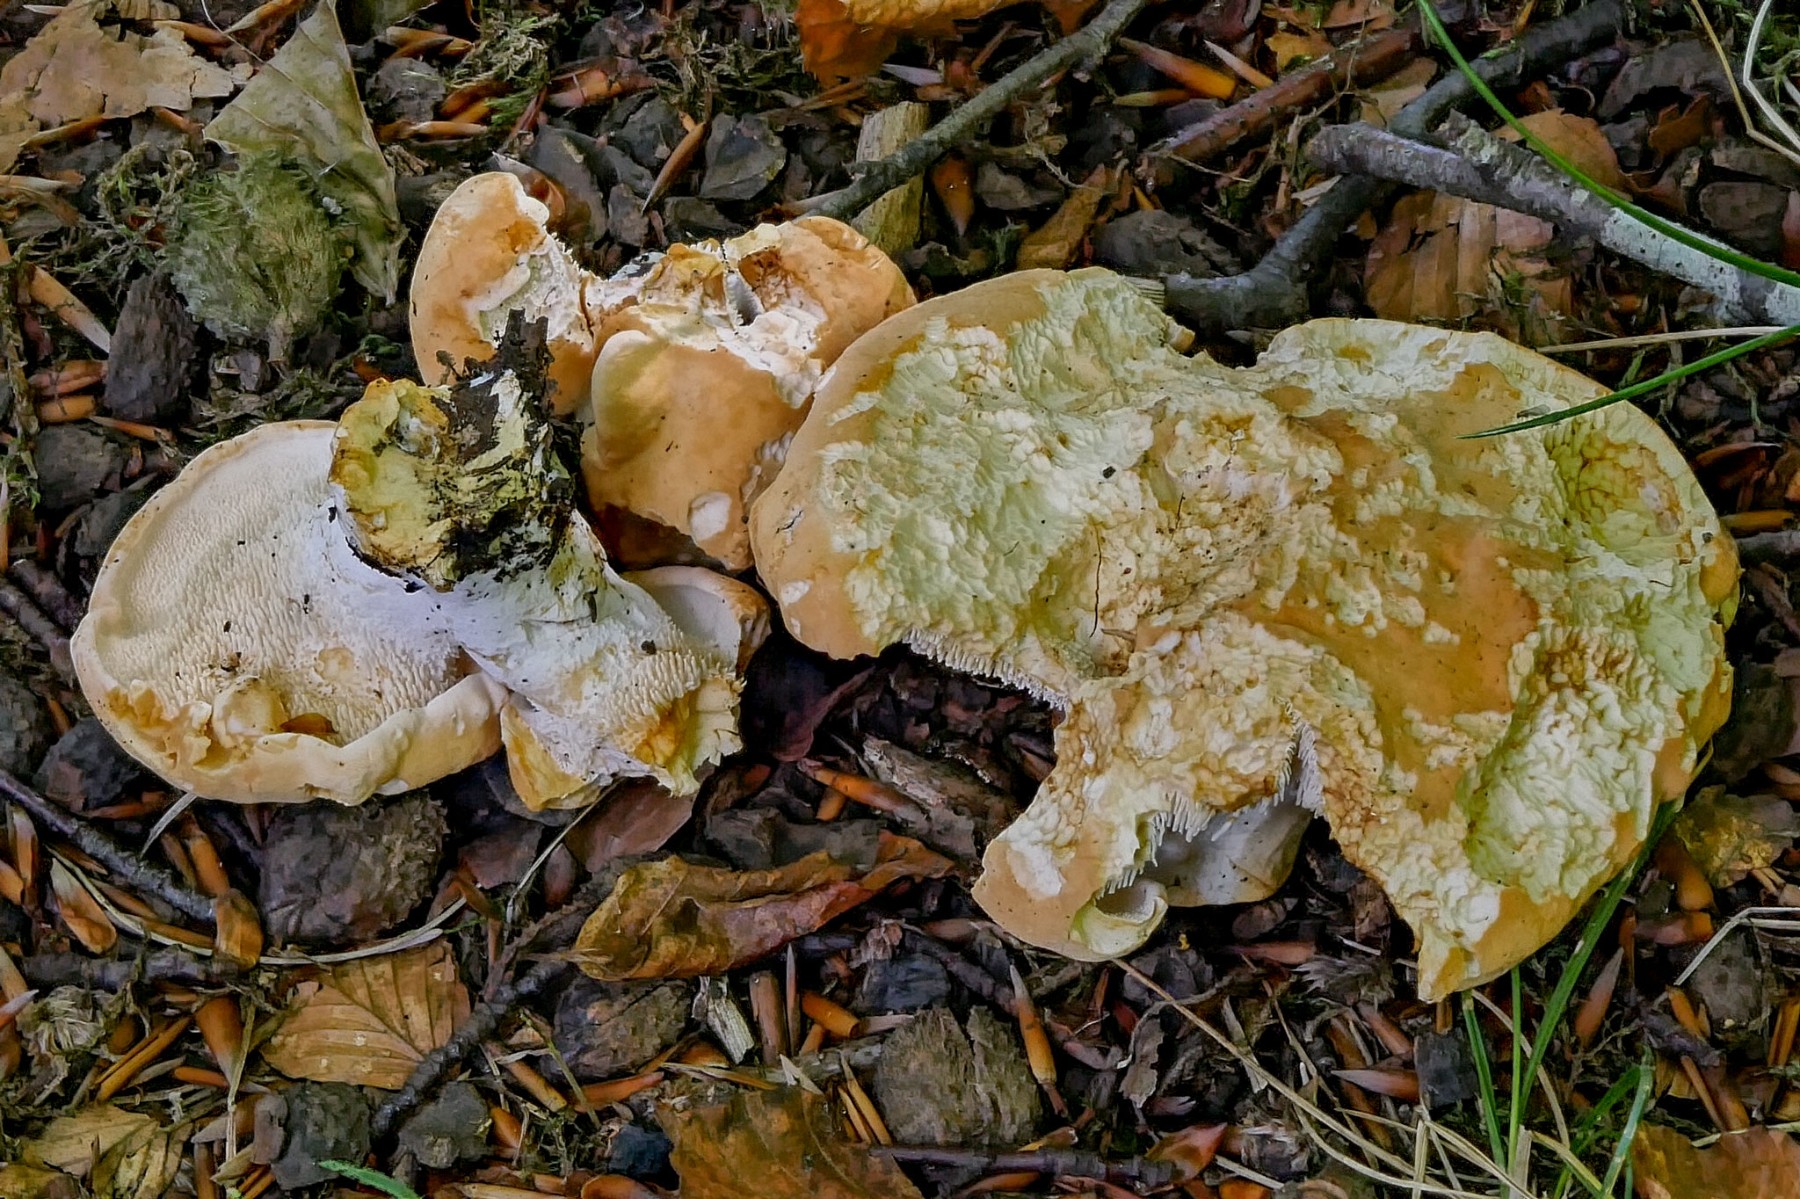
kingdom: Fungi
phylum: Basidiomycota
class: Agaricomycetes
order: Cantharellales
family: Hydnaceae
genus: Hydnum
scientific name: Hydnum
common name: pigsvamp
